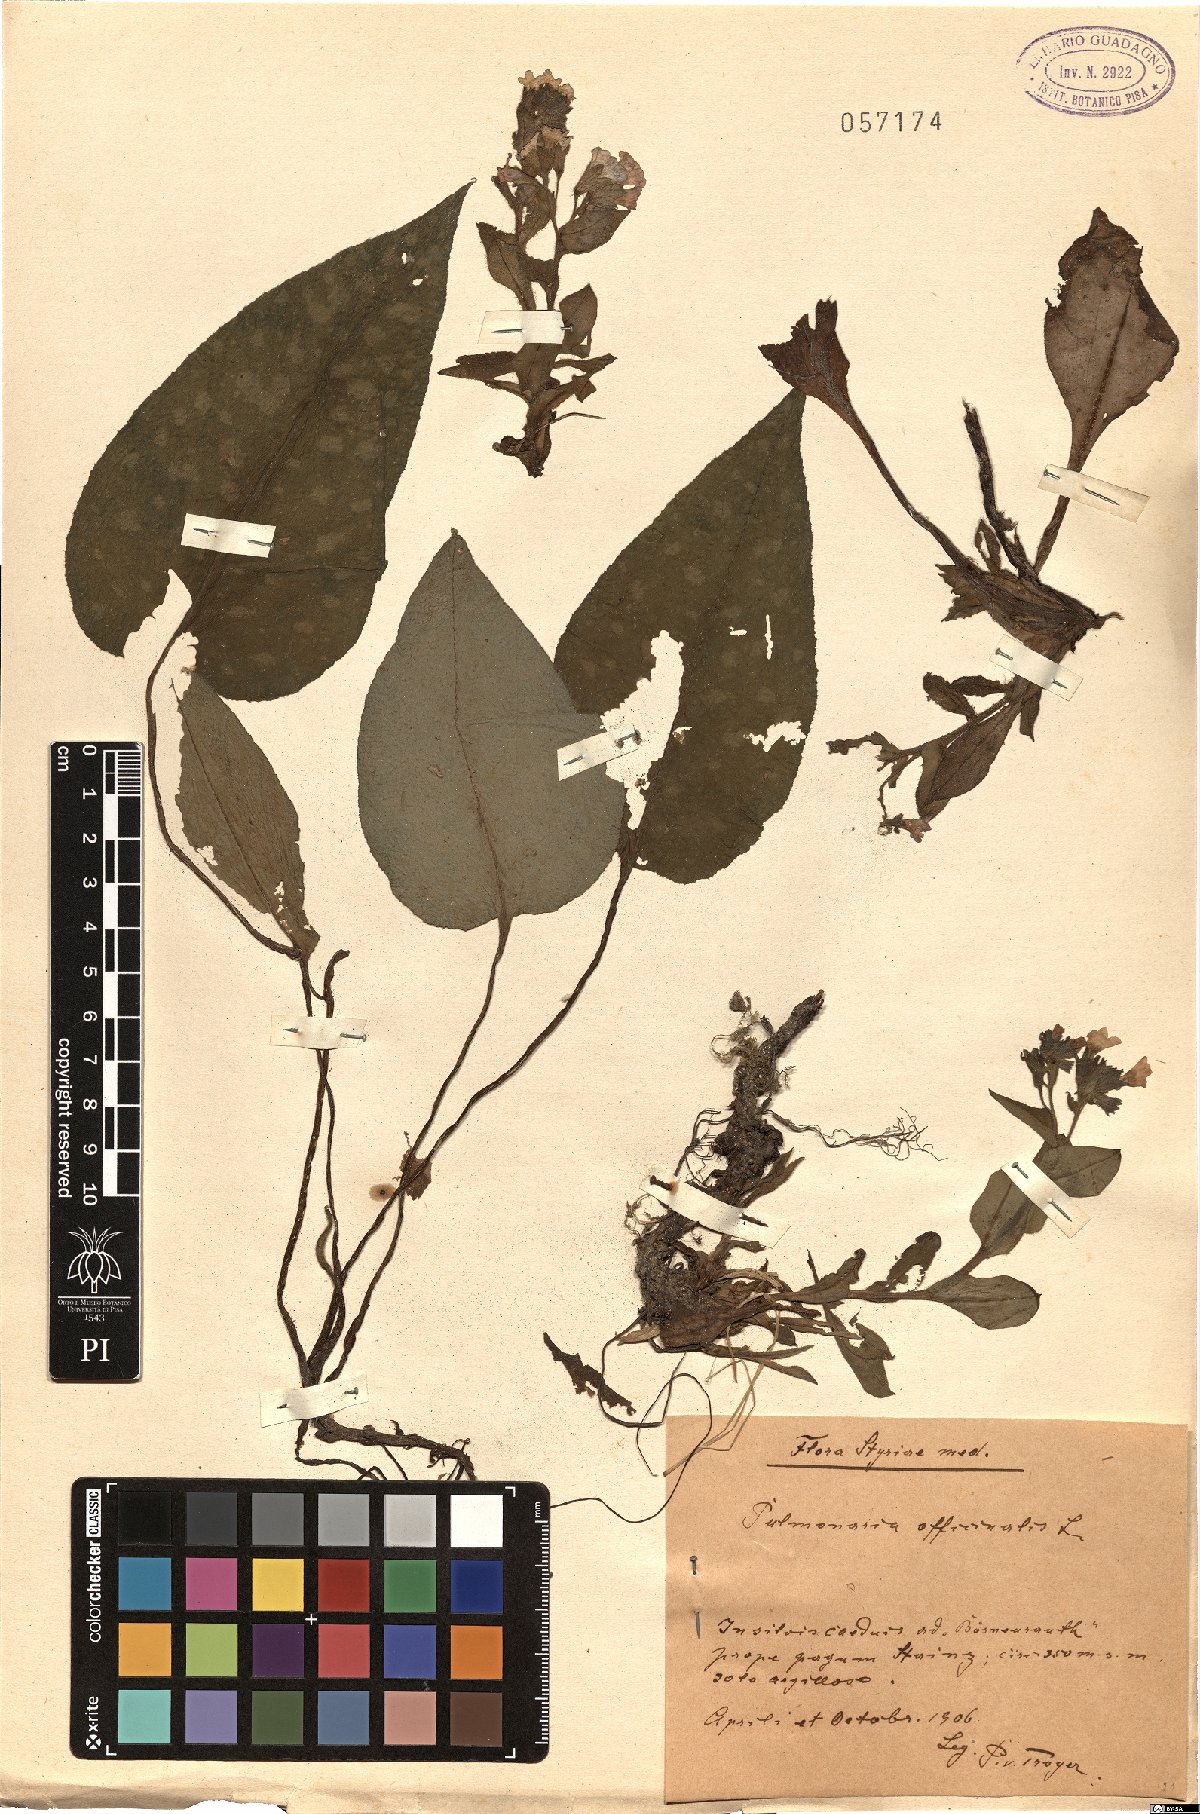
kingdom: Plantae
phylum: Tracheophyta
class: Magnoliopsida
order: Boraginales
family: Boraginaceae
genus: Pulmonaria
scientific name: Pulmonaria officinalis
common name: Lungwort
